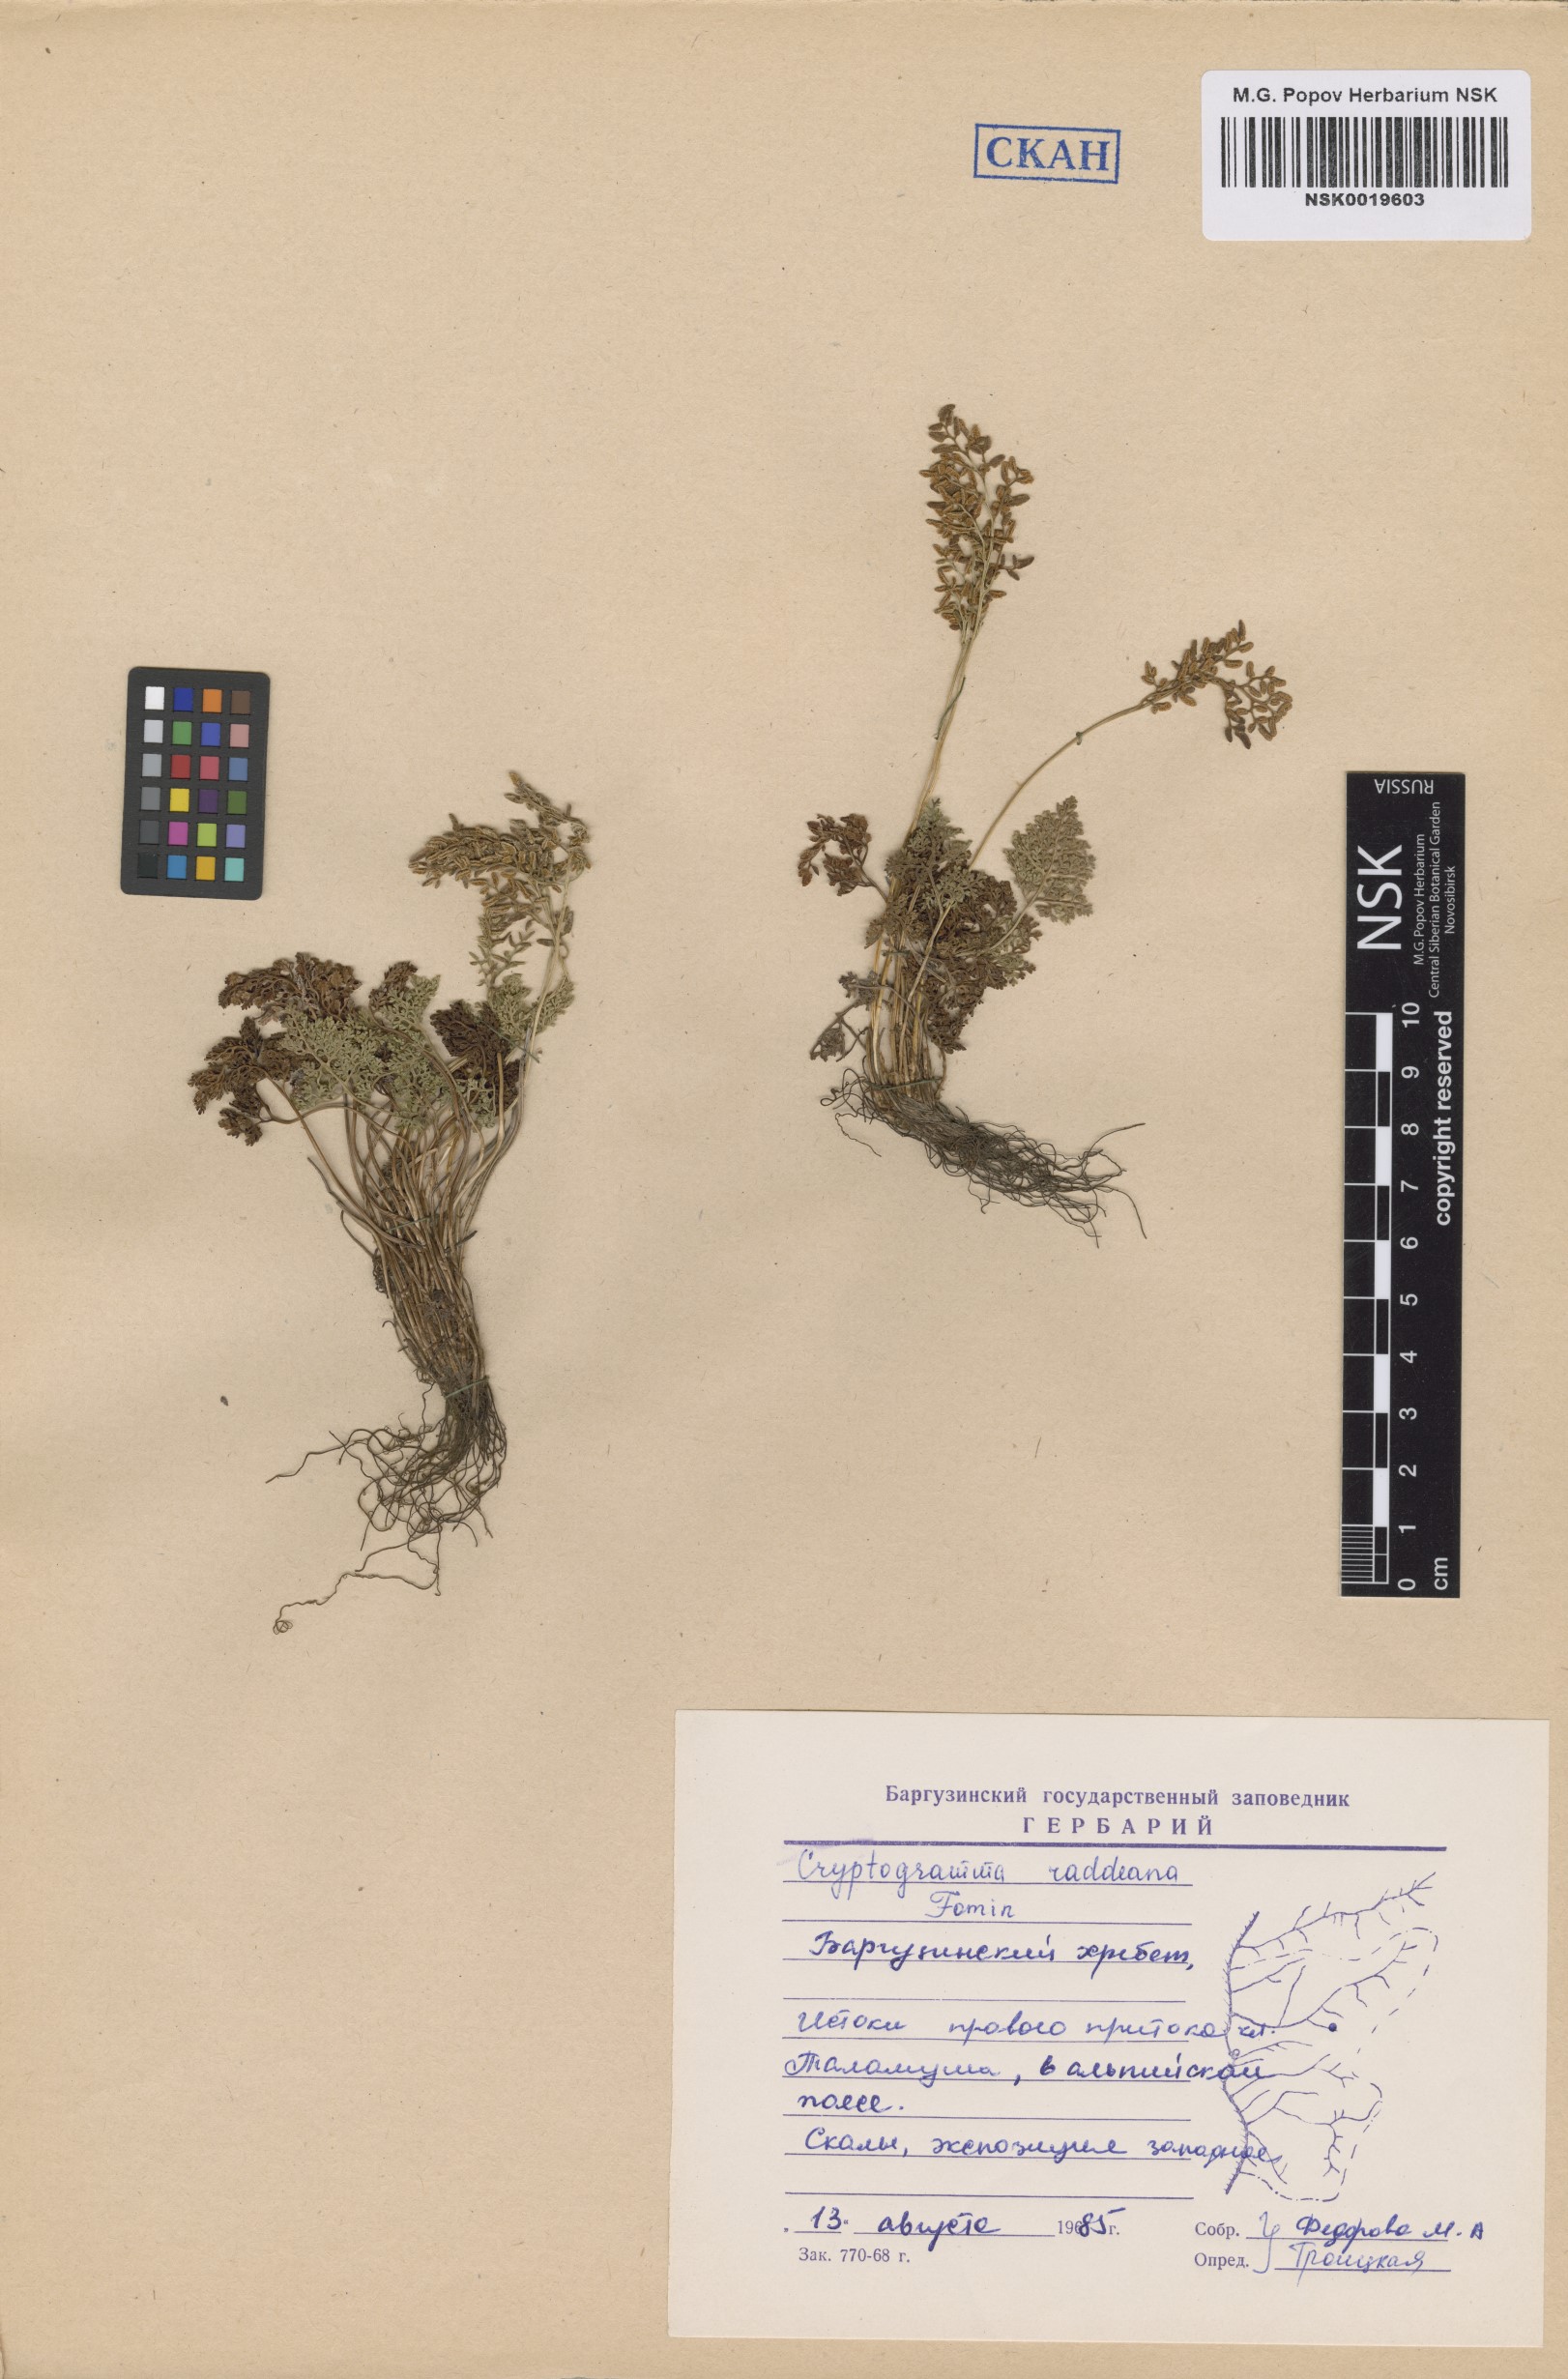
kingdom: Plantae
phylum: Tracheophyta
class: Polypodiopsida
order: Polypodiales
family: Pteridaceae
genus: Cryptogramma
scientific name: Cryptogramma brunoniana
